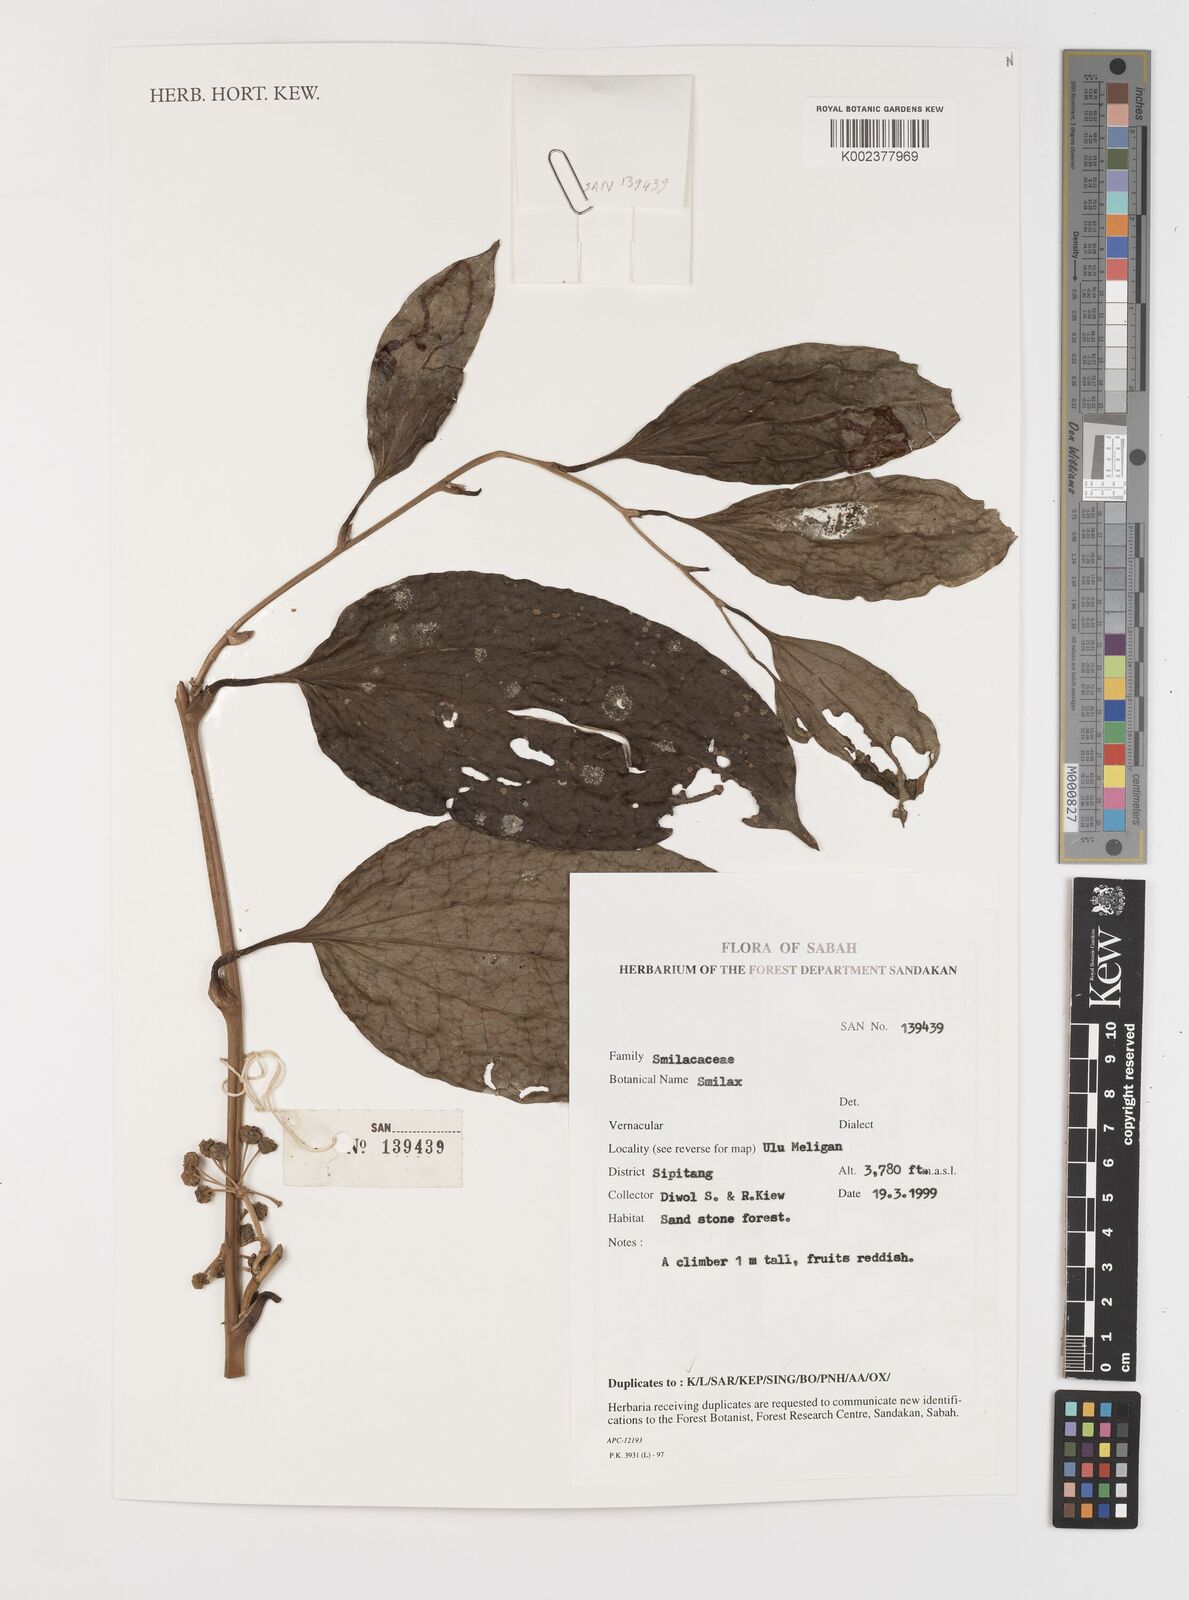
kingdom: Plantae
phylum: Tracheophyta
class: Liliopsida
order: Liliales
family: Smilacaceae
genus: Smilax
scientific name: Smilax
